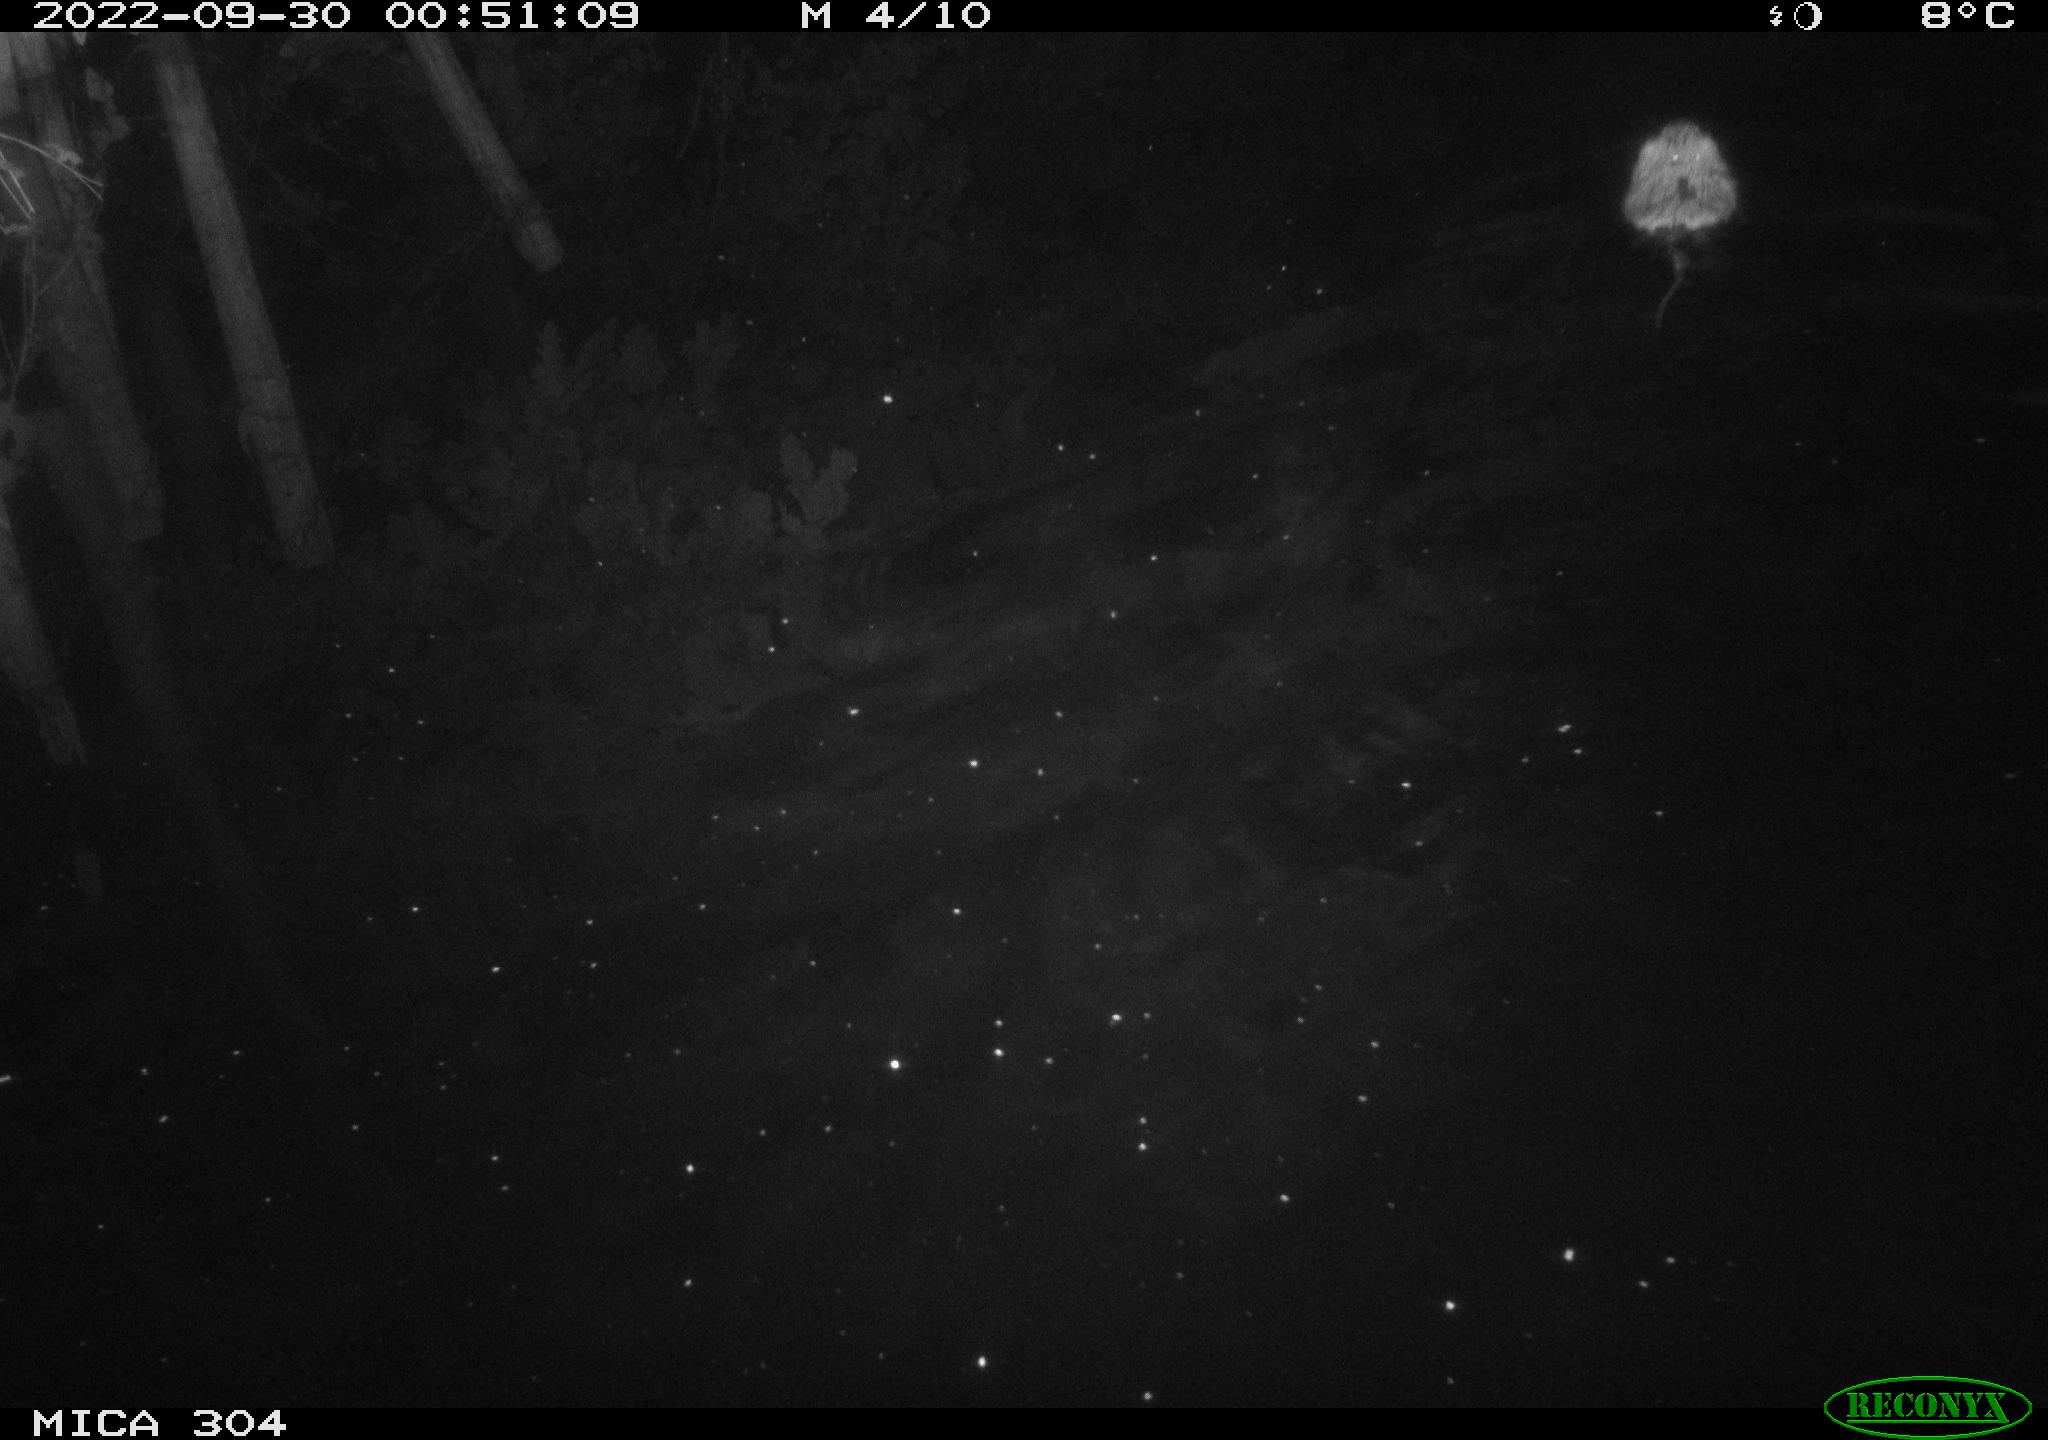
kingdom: Animalia
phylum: Chordata
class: Mammalia
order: Rodentia
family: Cricetidae
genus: Ondatra
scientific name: Ondatra zibethicus
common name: Muskrat
